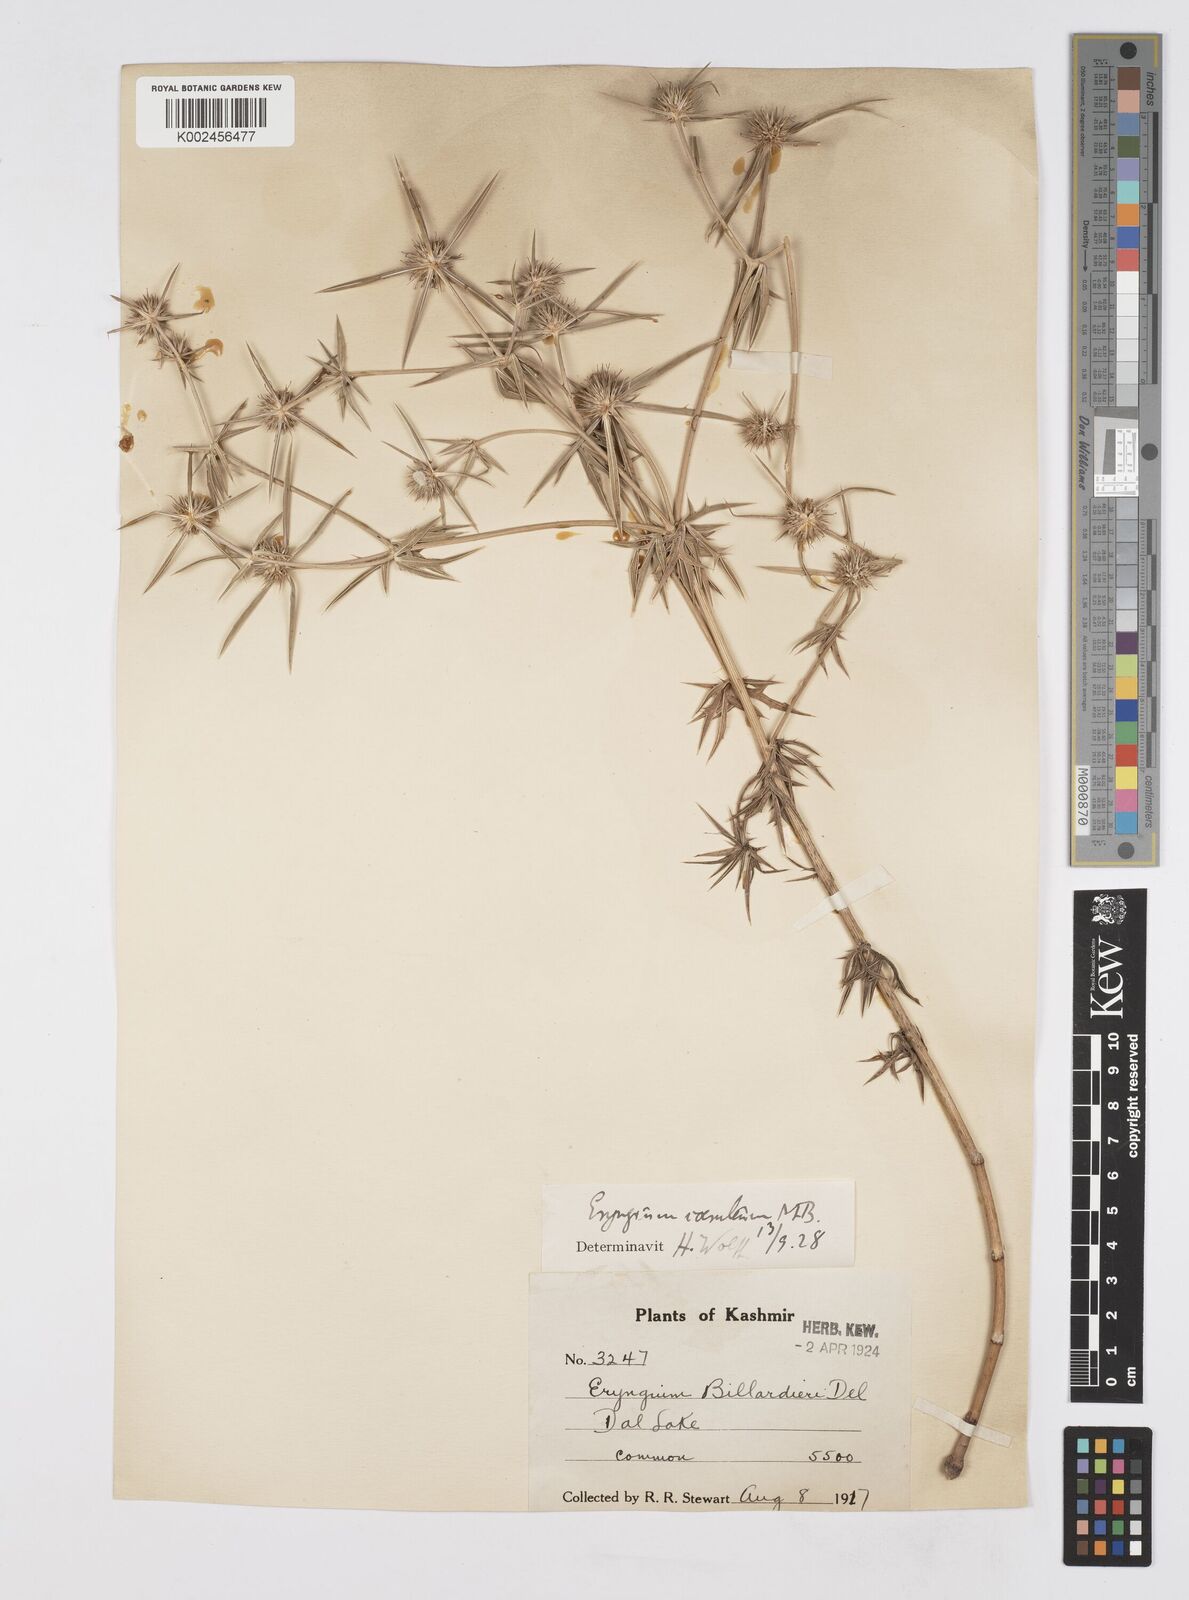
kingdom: Plantae
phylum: Tracheophyta
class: Magnoliopsida
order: Apiales
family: Apiaceae
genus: Eryngium
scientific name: Eryngium caeruleum
